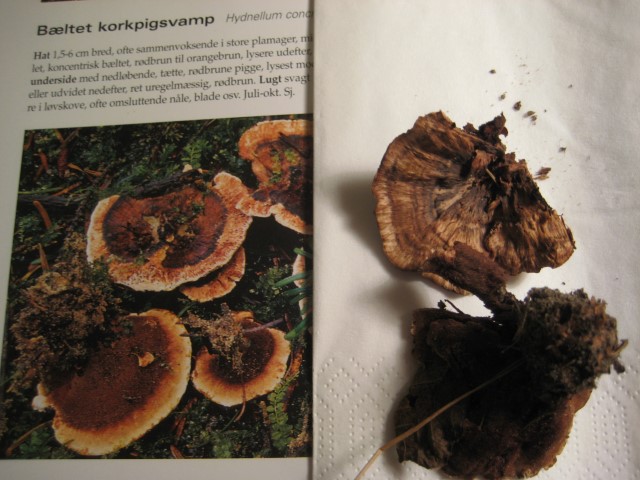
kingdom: Fungi
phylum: Basidiomycota
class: Agaricomycetes
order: Thelephorales
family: Bankeraceae
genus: Hydnellum
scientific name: Hydnellum concrescens
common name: bæltet korkpigsvamp
